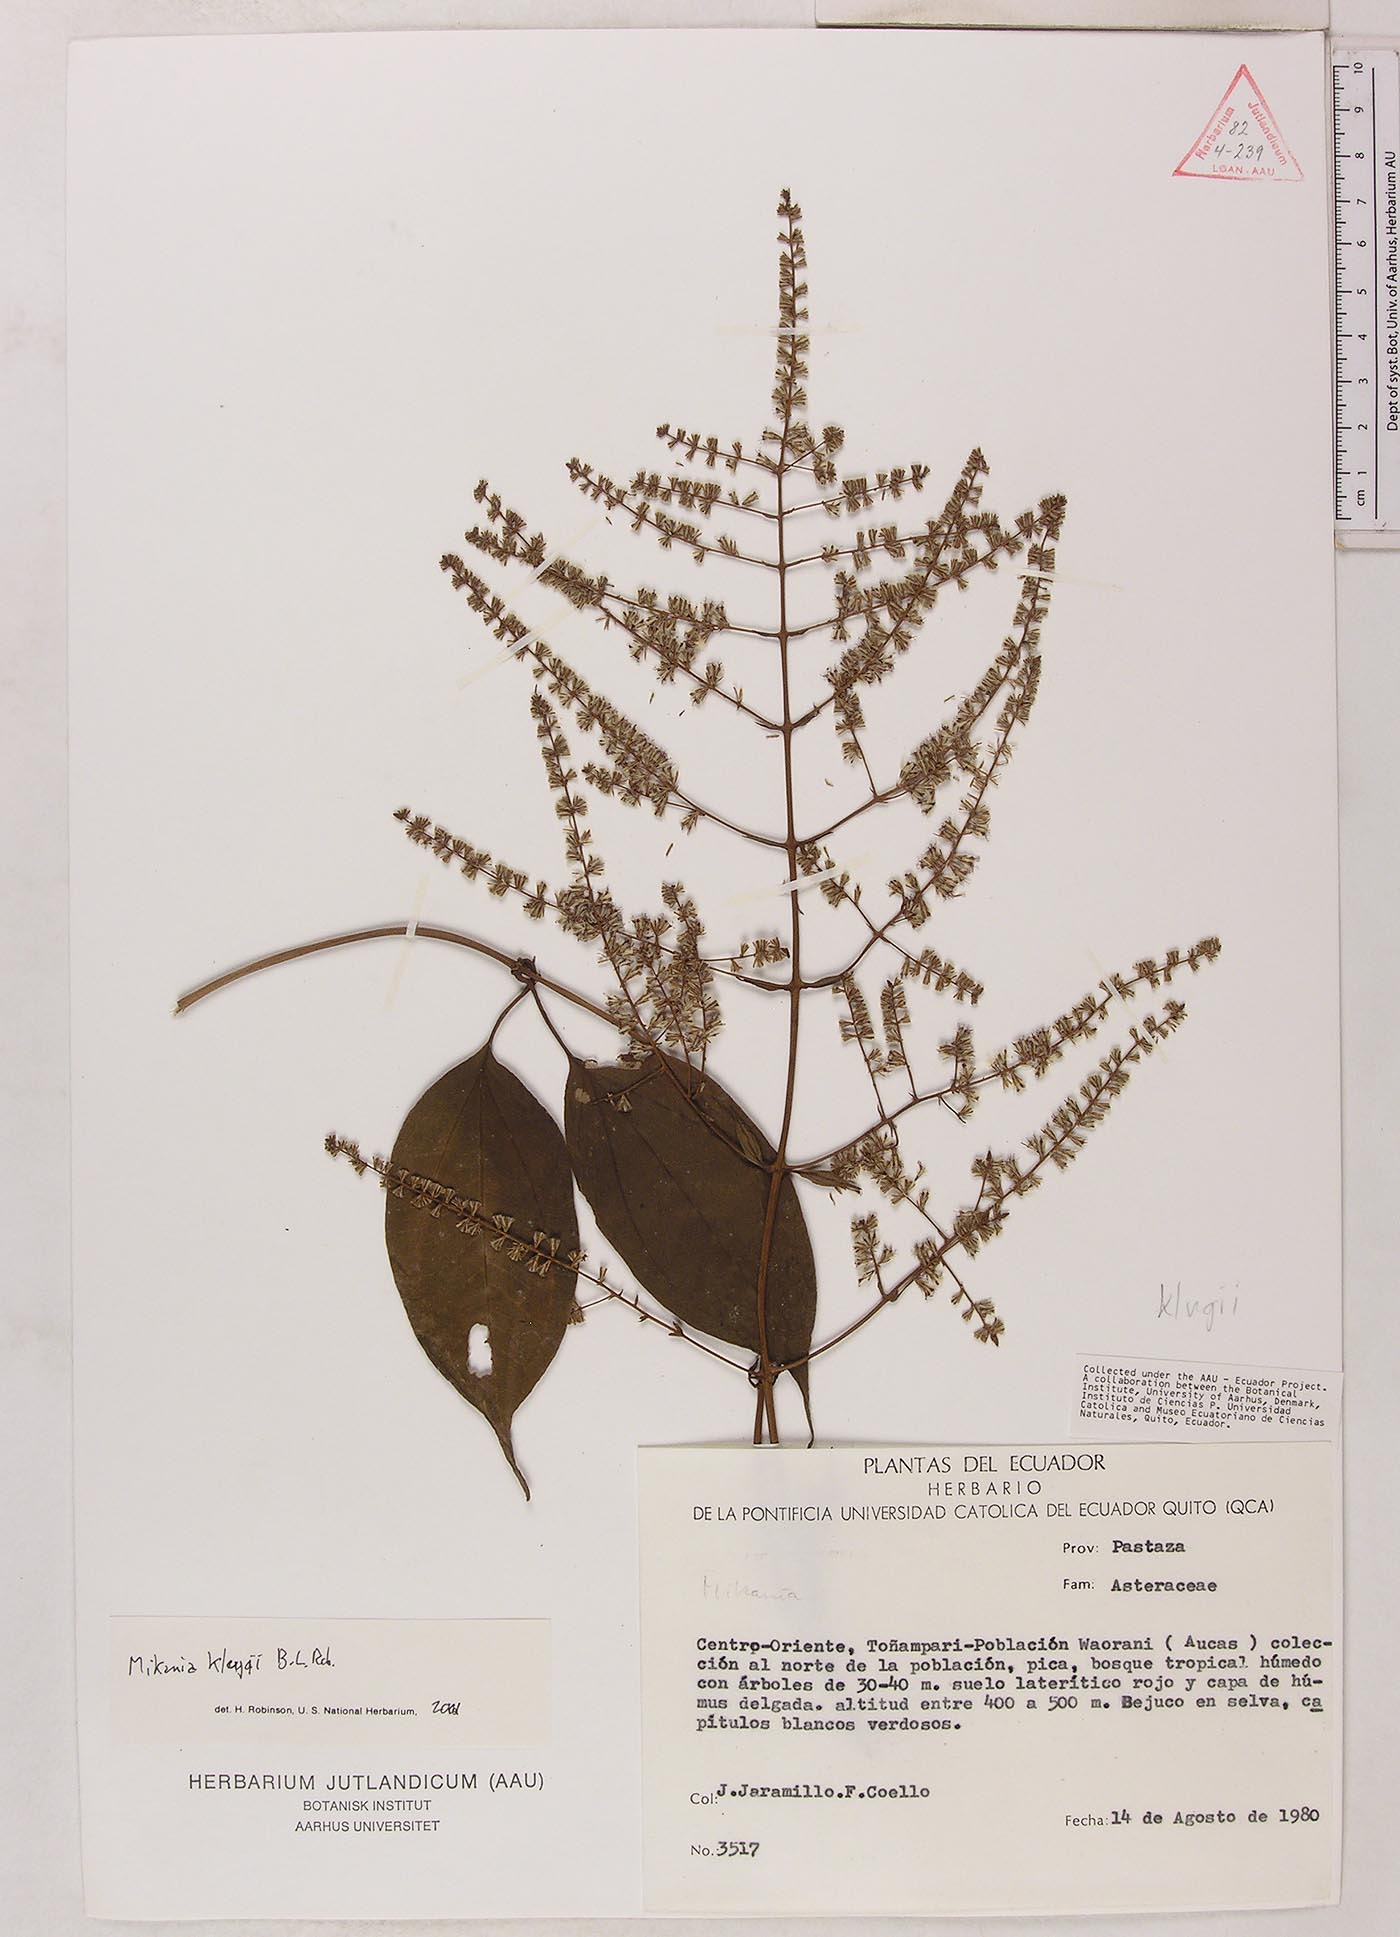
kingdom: Plantae
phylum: Tracheophyta
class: Magnoliopsida
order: Asterales
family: Asteraceae
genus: Mikania
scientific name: Mikania klugii
